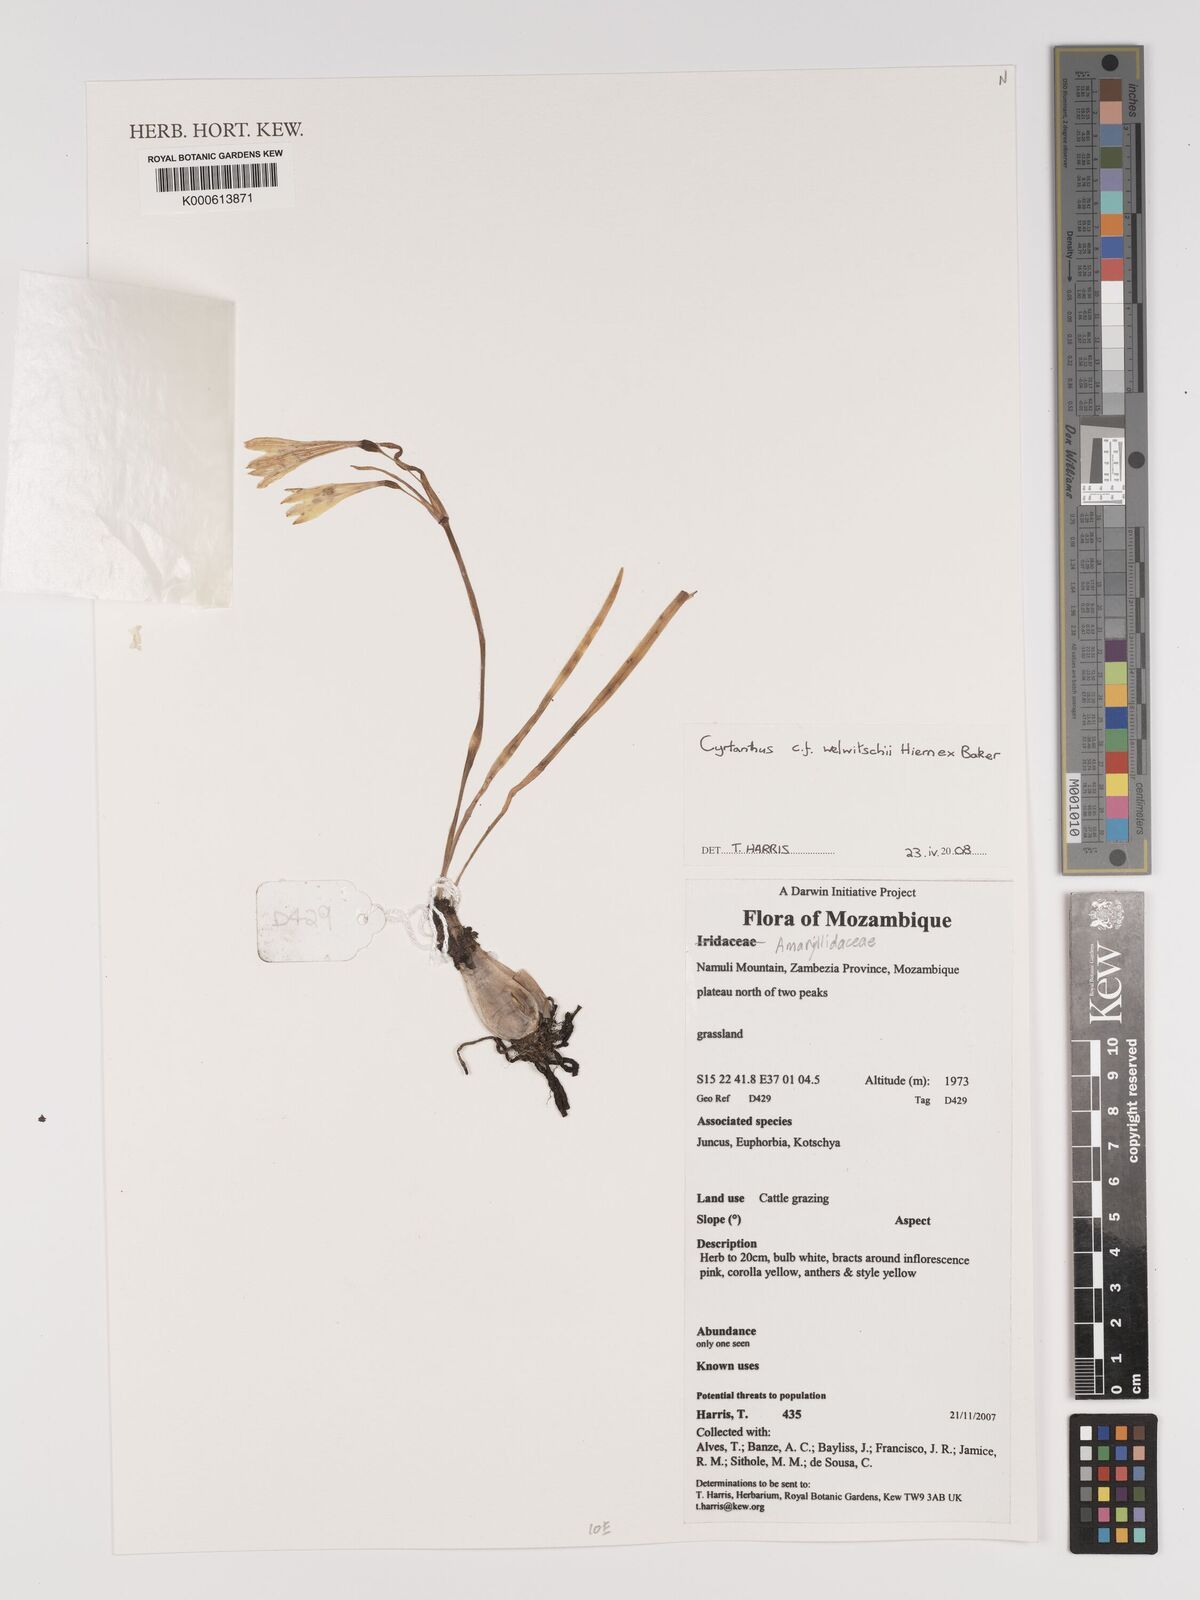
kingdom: Plantae
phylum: Tracheophyta
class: Liliopsida
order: Asparagales
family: Amaryllidaceae
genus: Cyrtanthus
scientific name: Cyrtanthus welwitschii
